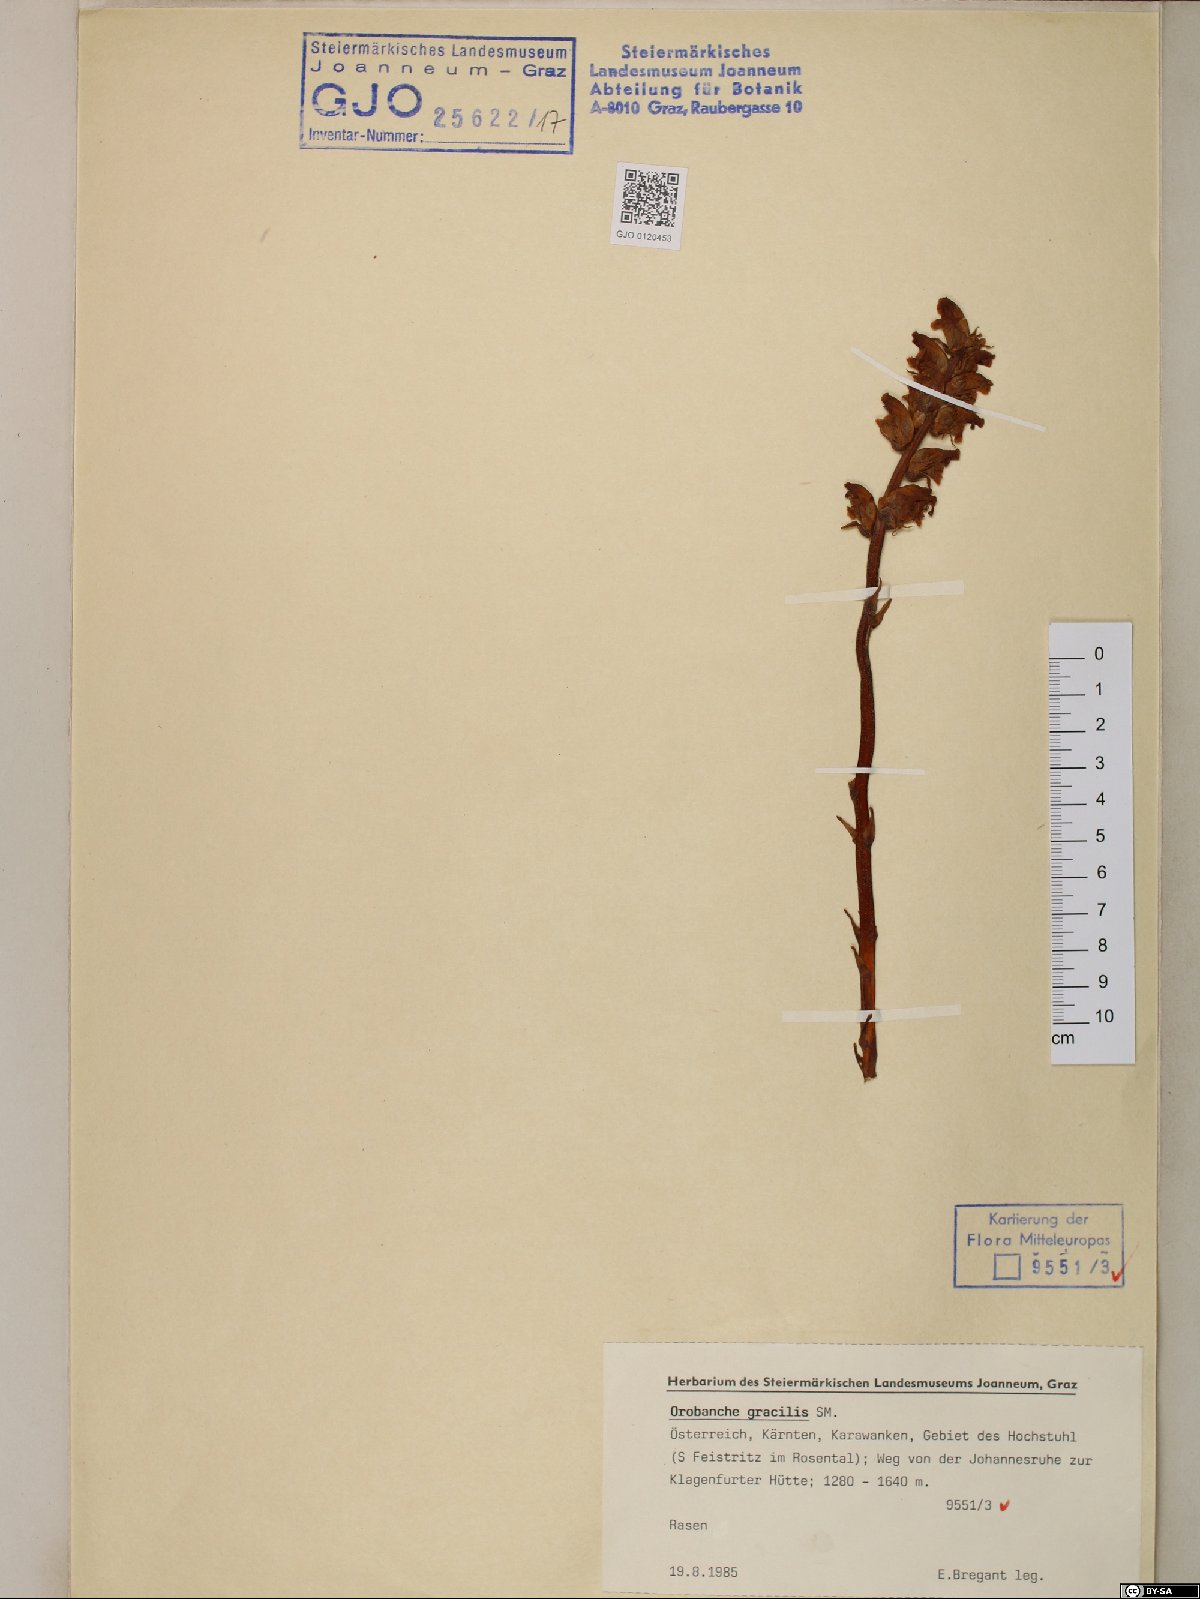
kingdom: Plantae
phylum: Tracheophyta
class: Magnoliopsida
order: Lamiales
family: Orobanchaceae
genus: Orobanche
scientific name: Orobanche gracilis
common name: Slender broomrape
